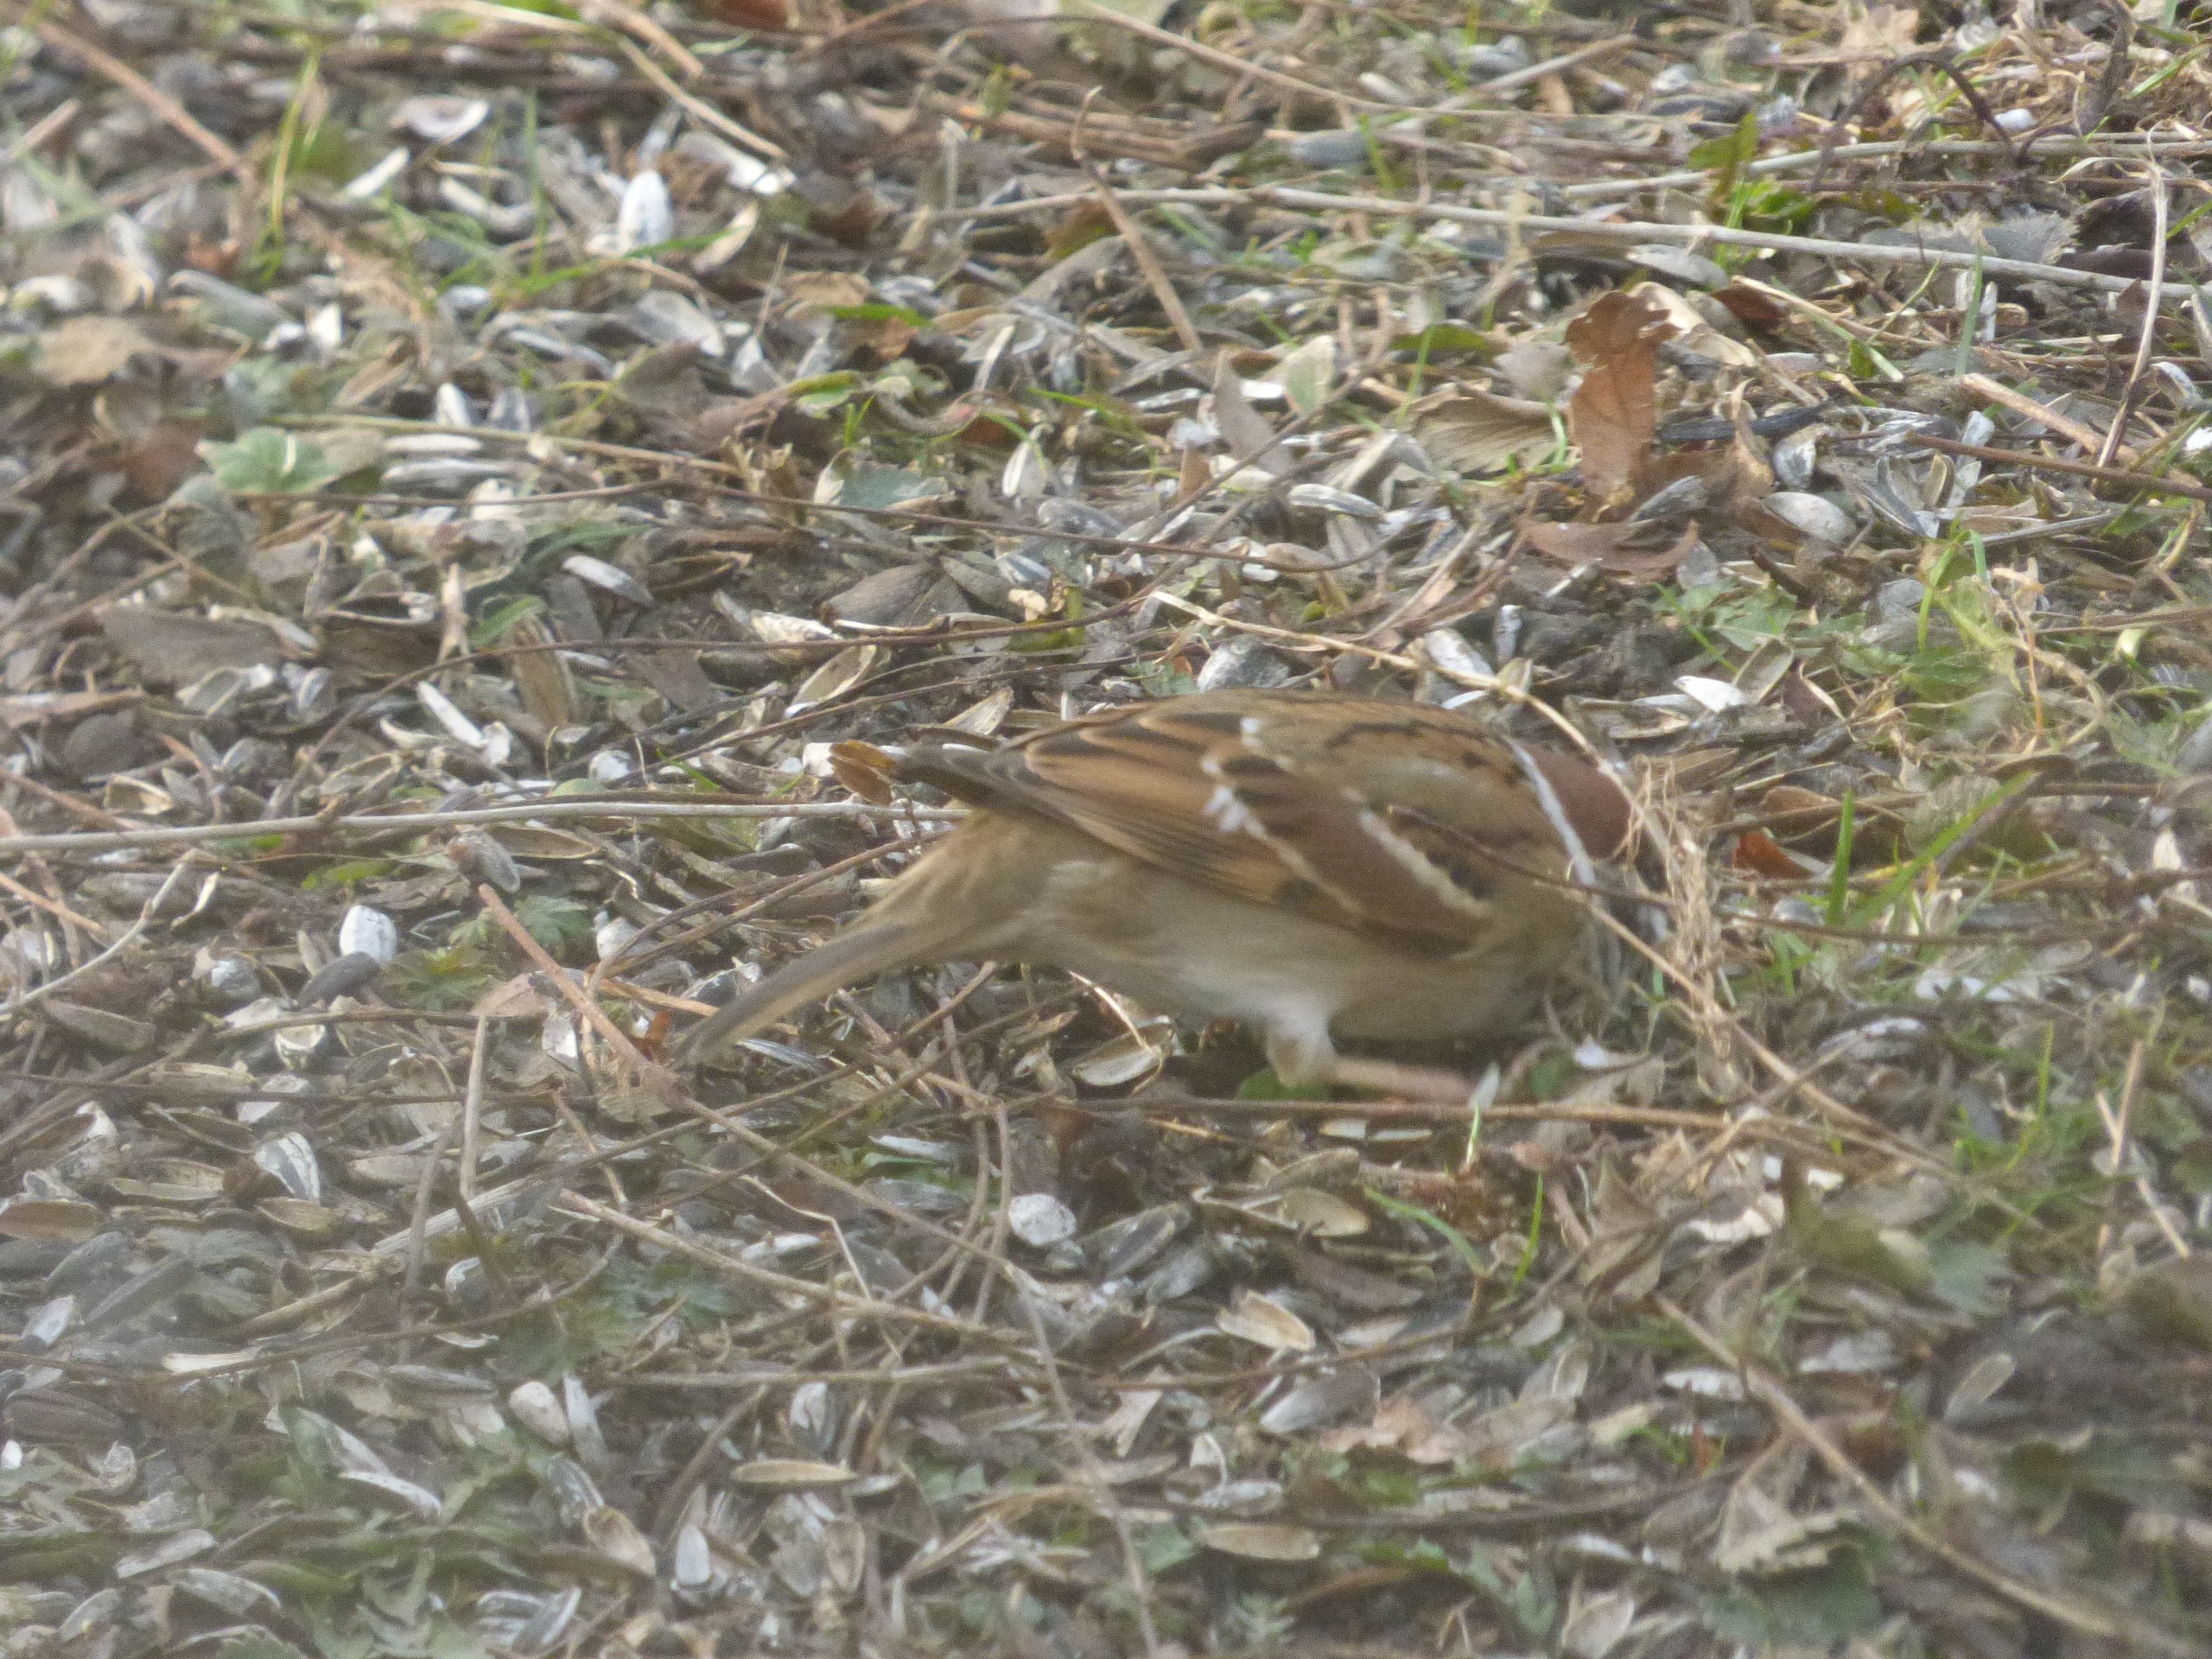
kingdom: Animalia
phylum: Chordata
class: Aves
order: Passeriformes
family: Passeridae
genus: Passer
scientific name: Passer montanus
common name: Skovspurv
